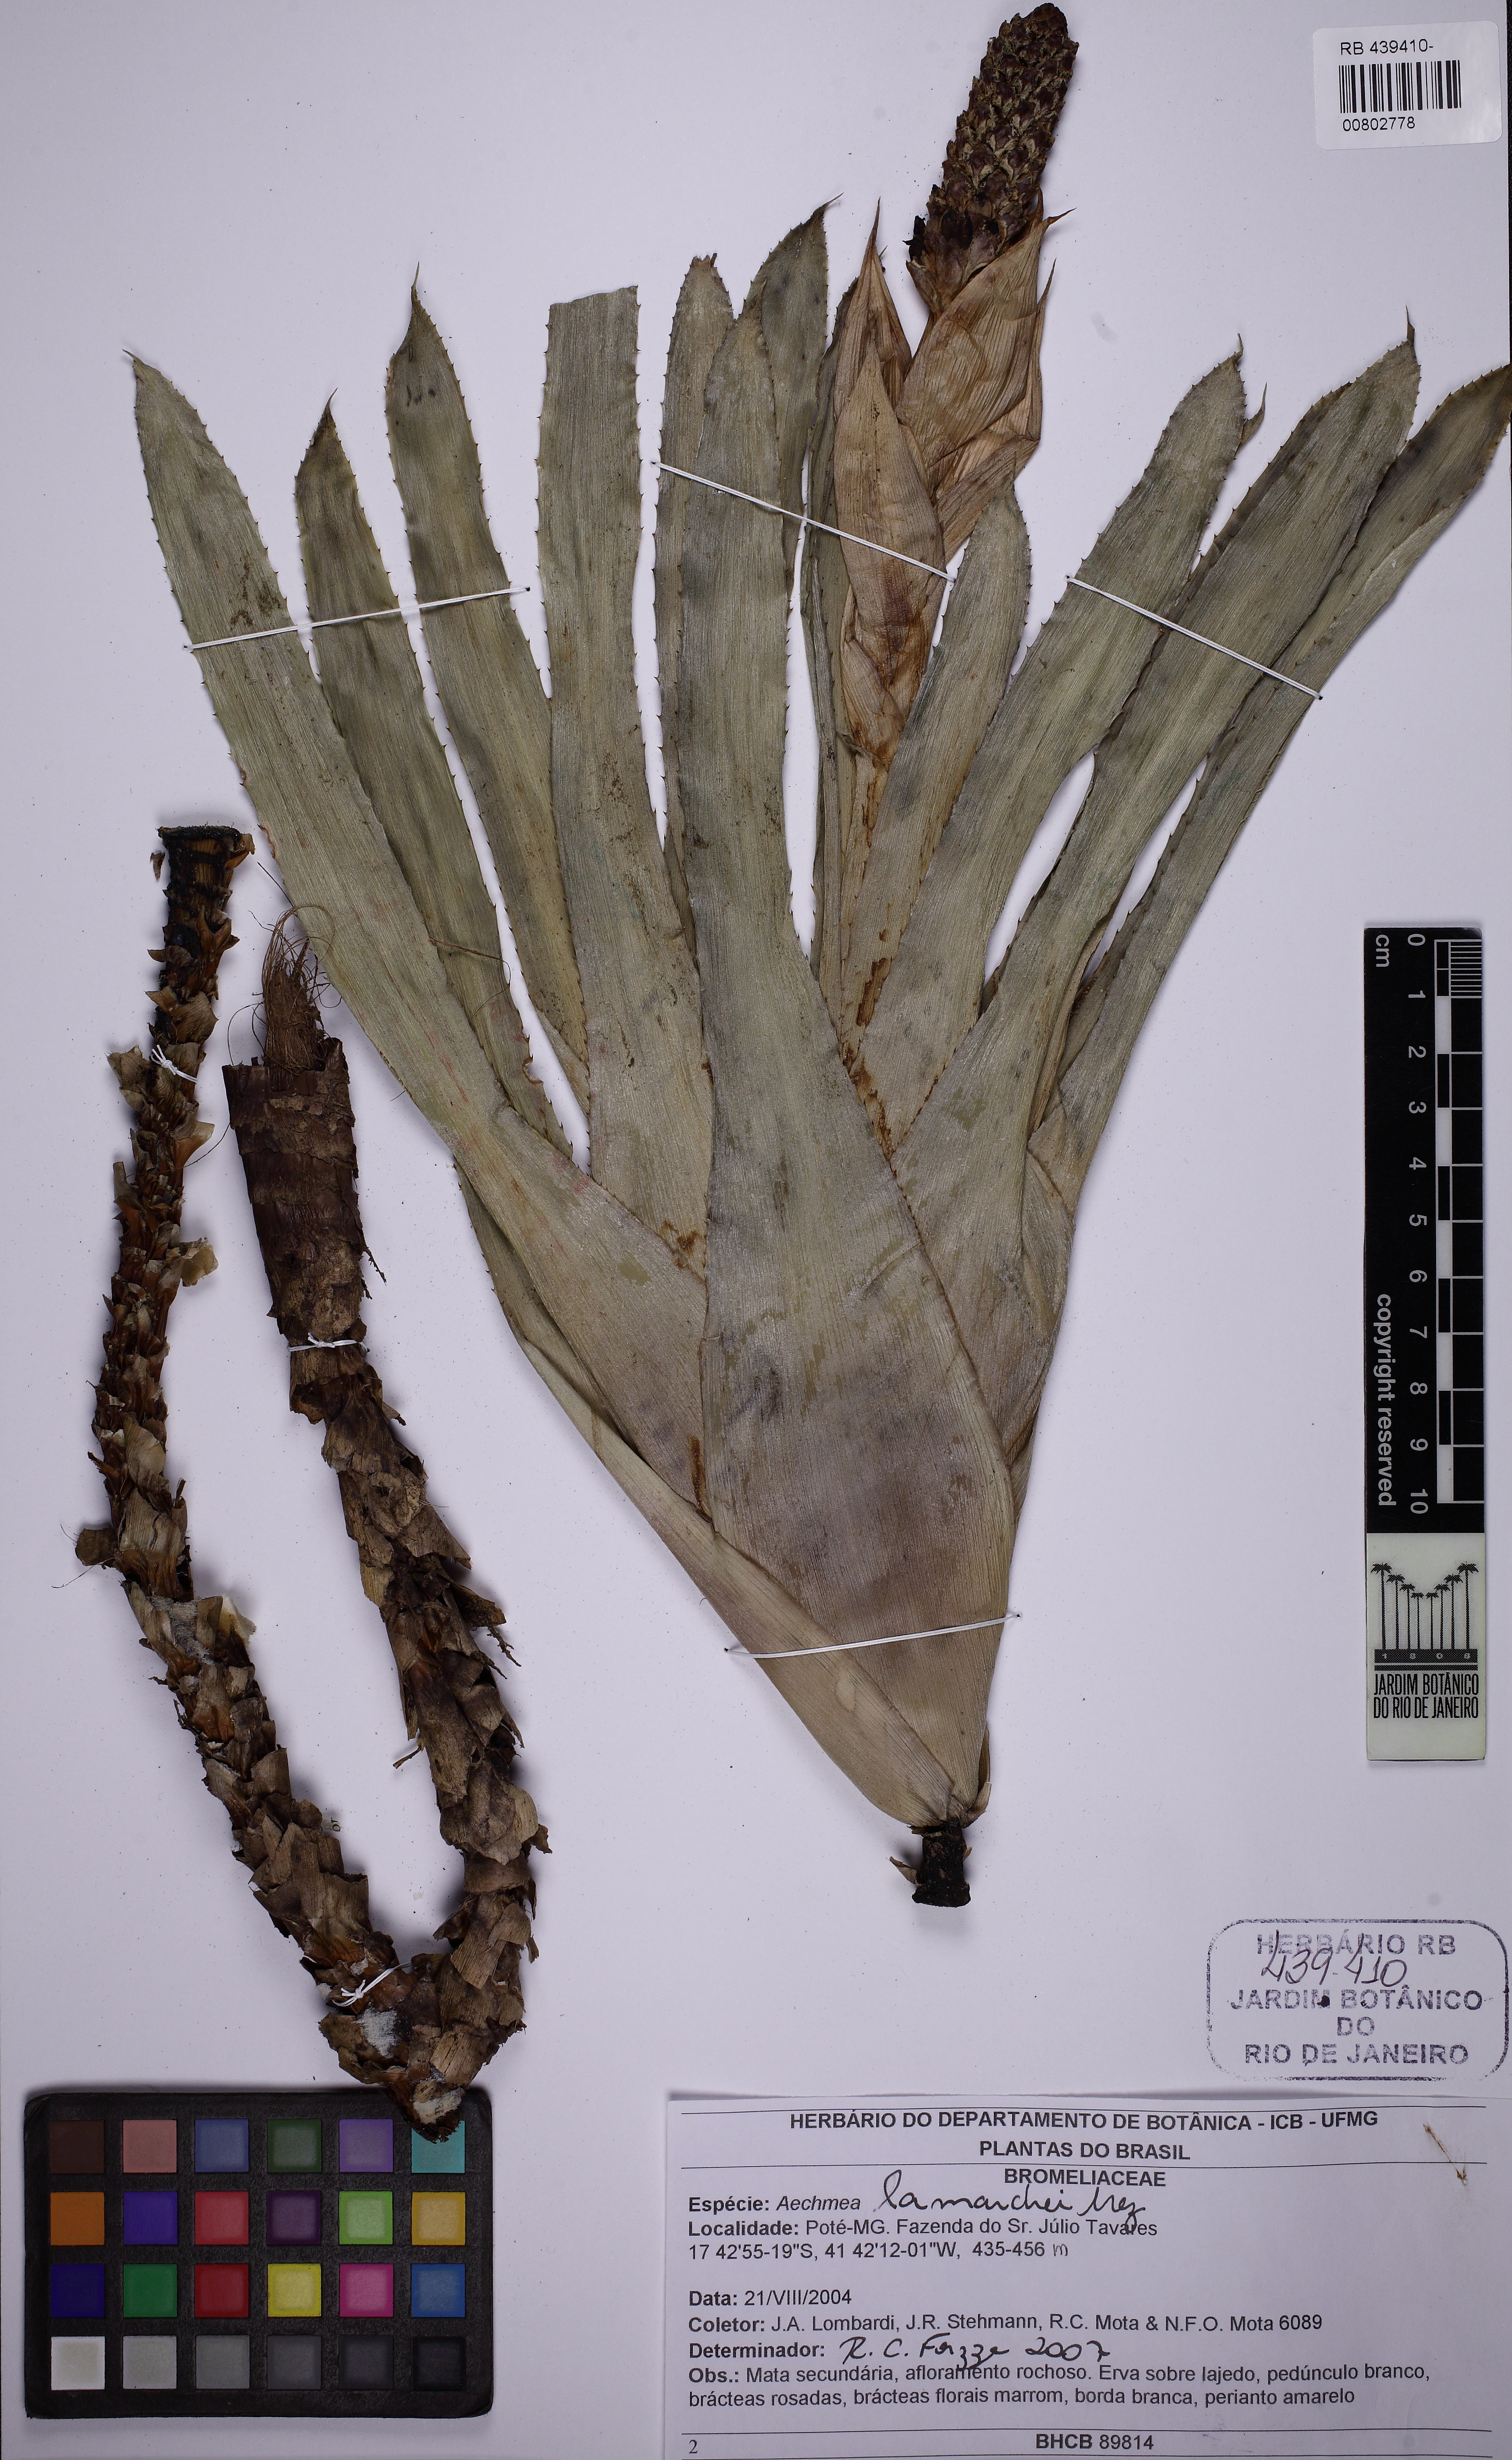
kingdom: Plantae
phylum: Tracheophyta
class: Liliopsida
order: Poales
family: Bromeliaceae
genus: Aechmea
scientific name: Aechmea lamarchei
